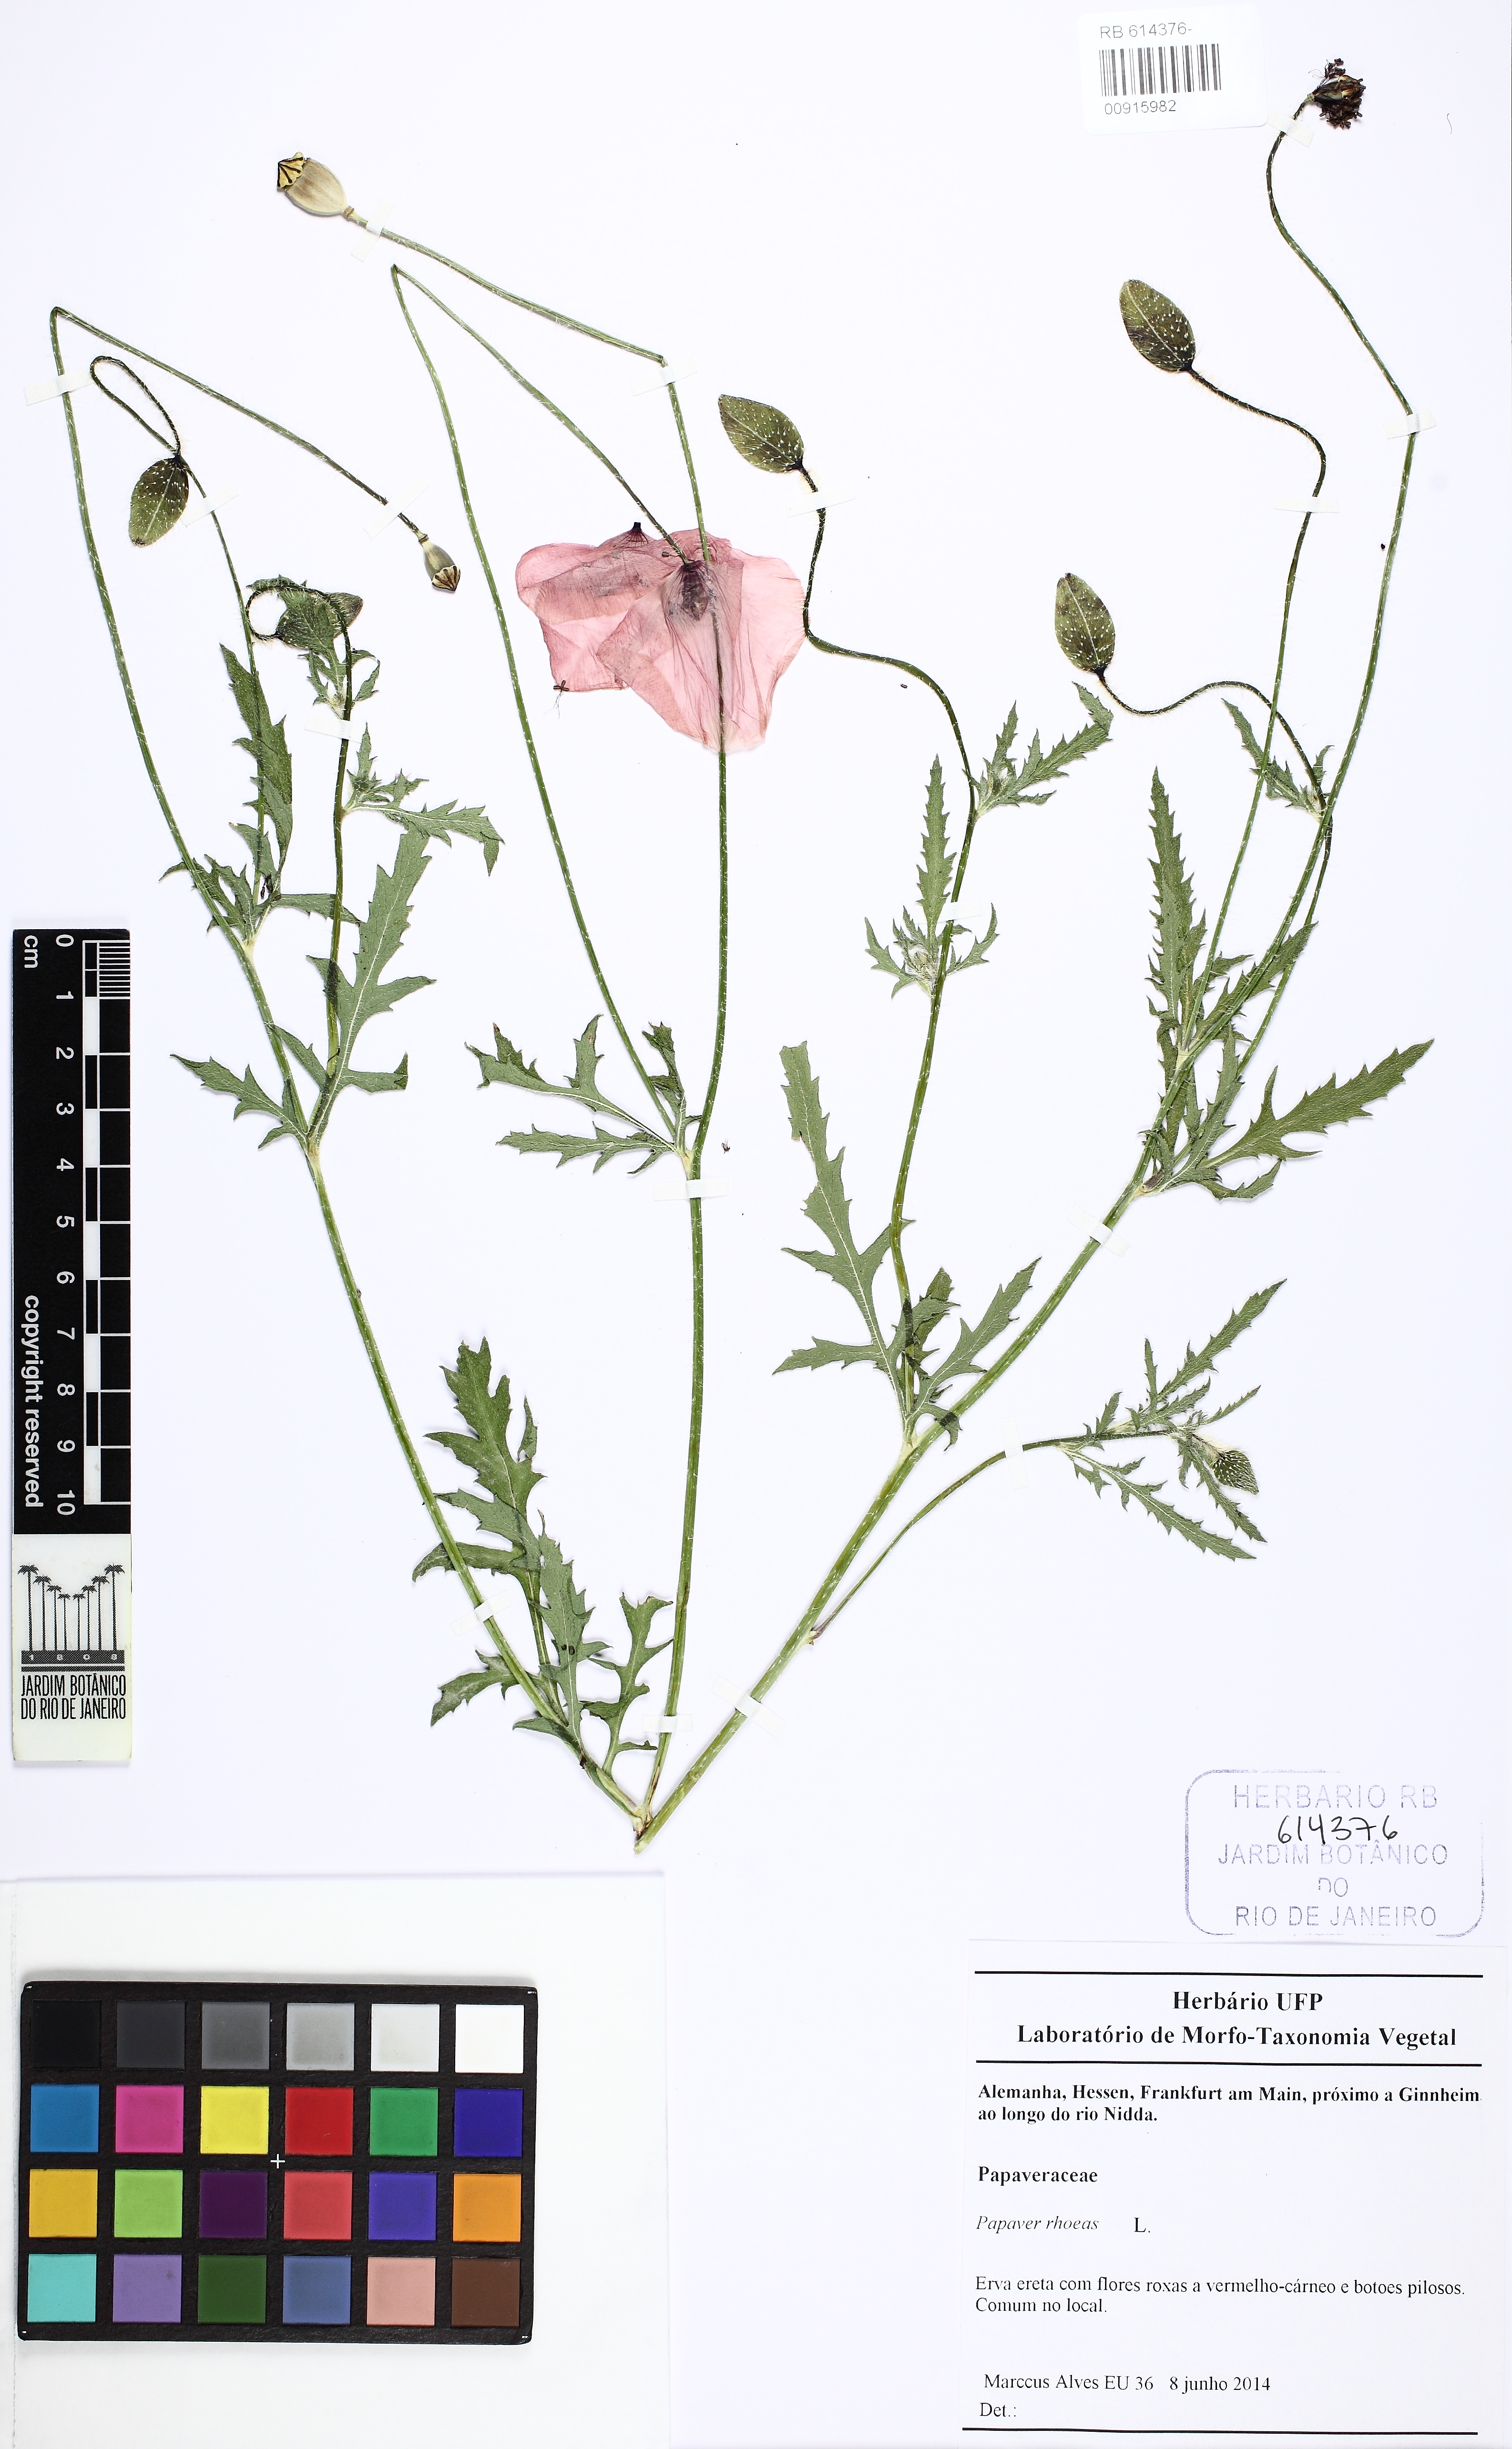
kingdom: Plantae
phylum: Tracheophyta
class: Magnoliopsida
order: Ranunculales
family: Papaveraceae
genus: Papaver
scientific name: Papaver rhoeas
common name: Corn poppy
